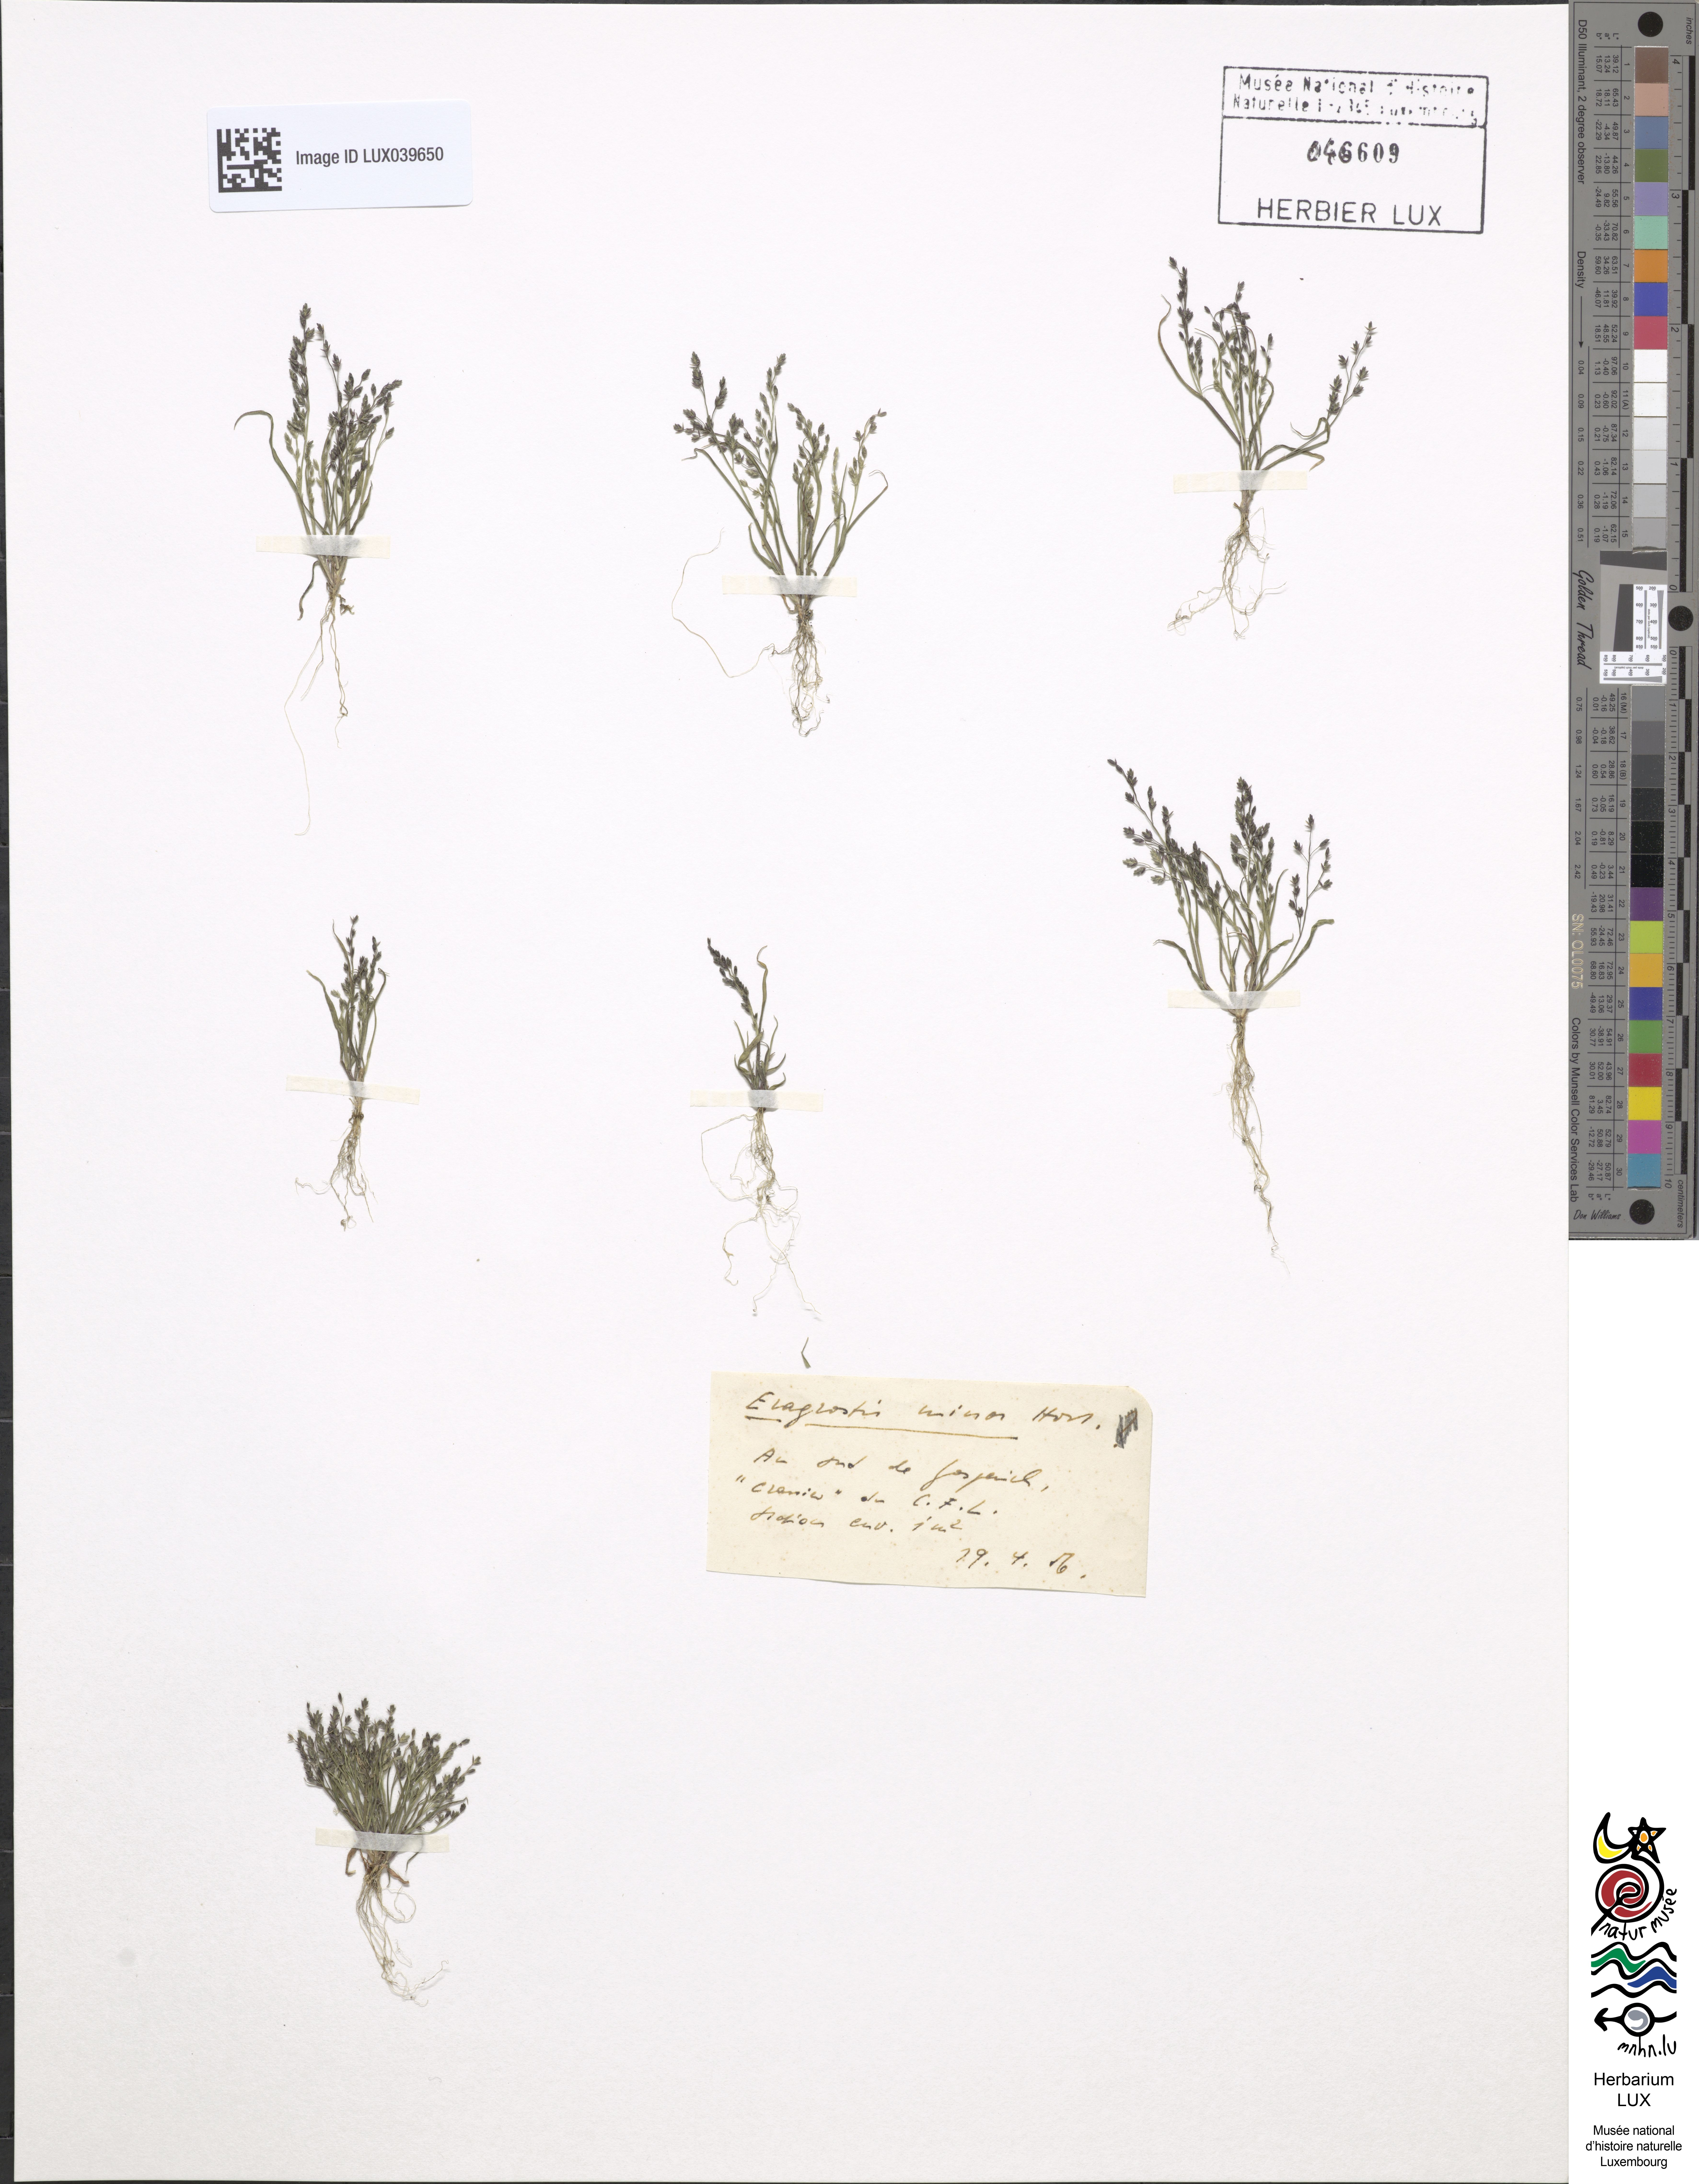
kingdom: Plantae
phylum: Tracheophyta
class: Liliopsida
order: Poales
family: Poaceae
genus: Eragrostis
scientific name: Eragrostis minor
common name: Small love-grass
